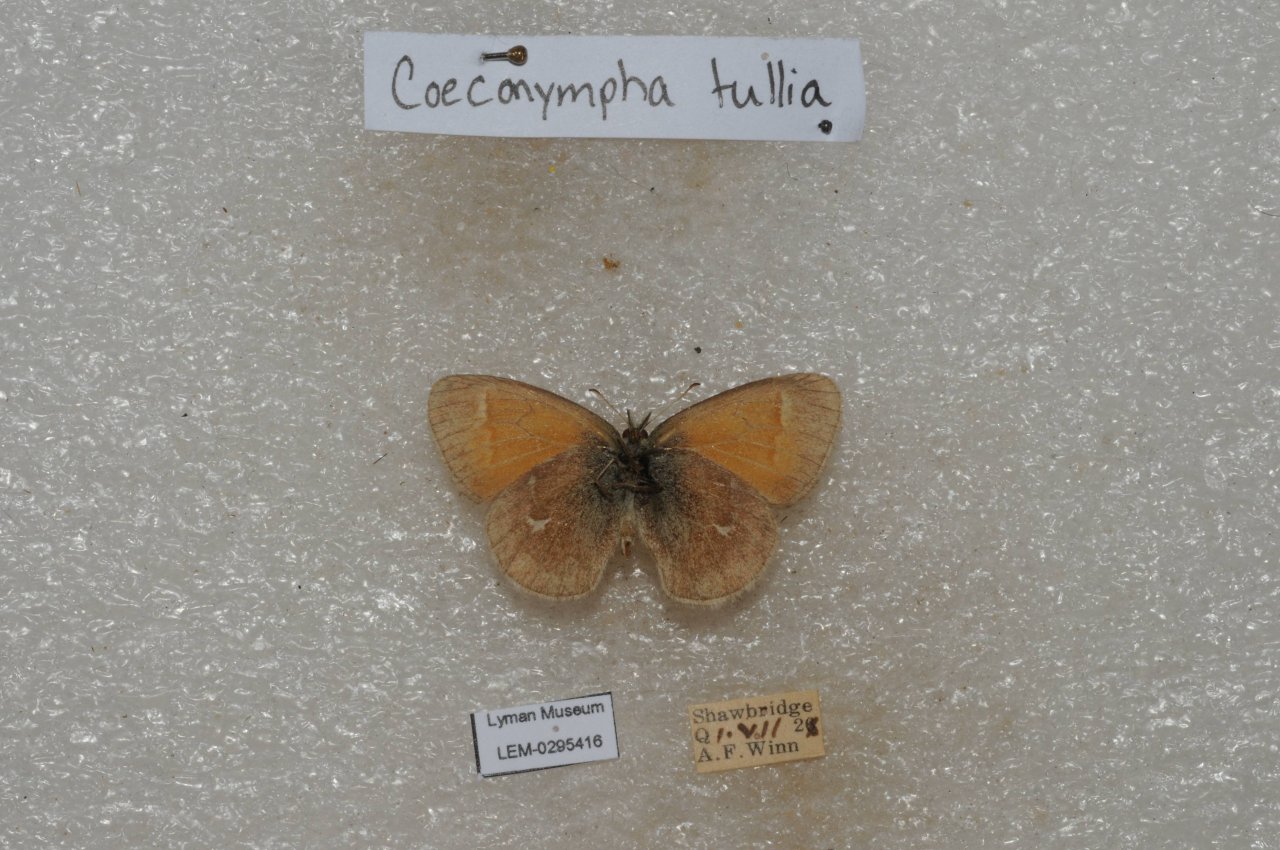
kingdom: Animalia
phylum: Arthropoda
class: Insecta
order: Lepidoptera
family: Nymphalidae
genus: Coenonympha
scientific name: Coenonympha tullia
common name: Large Heath
